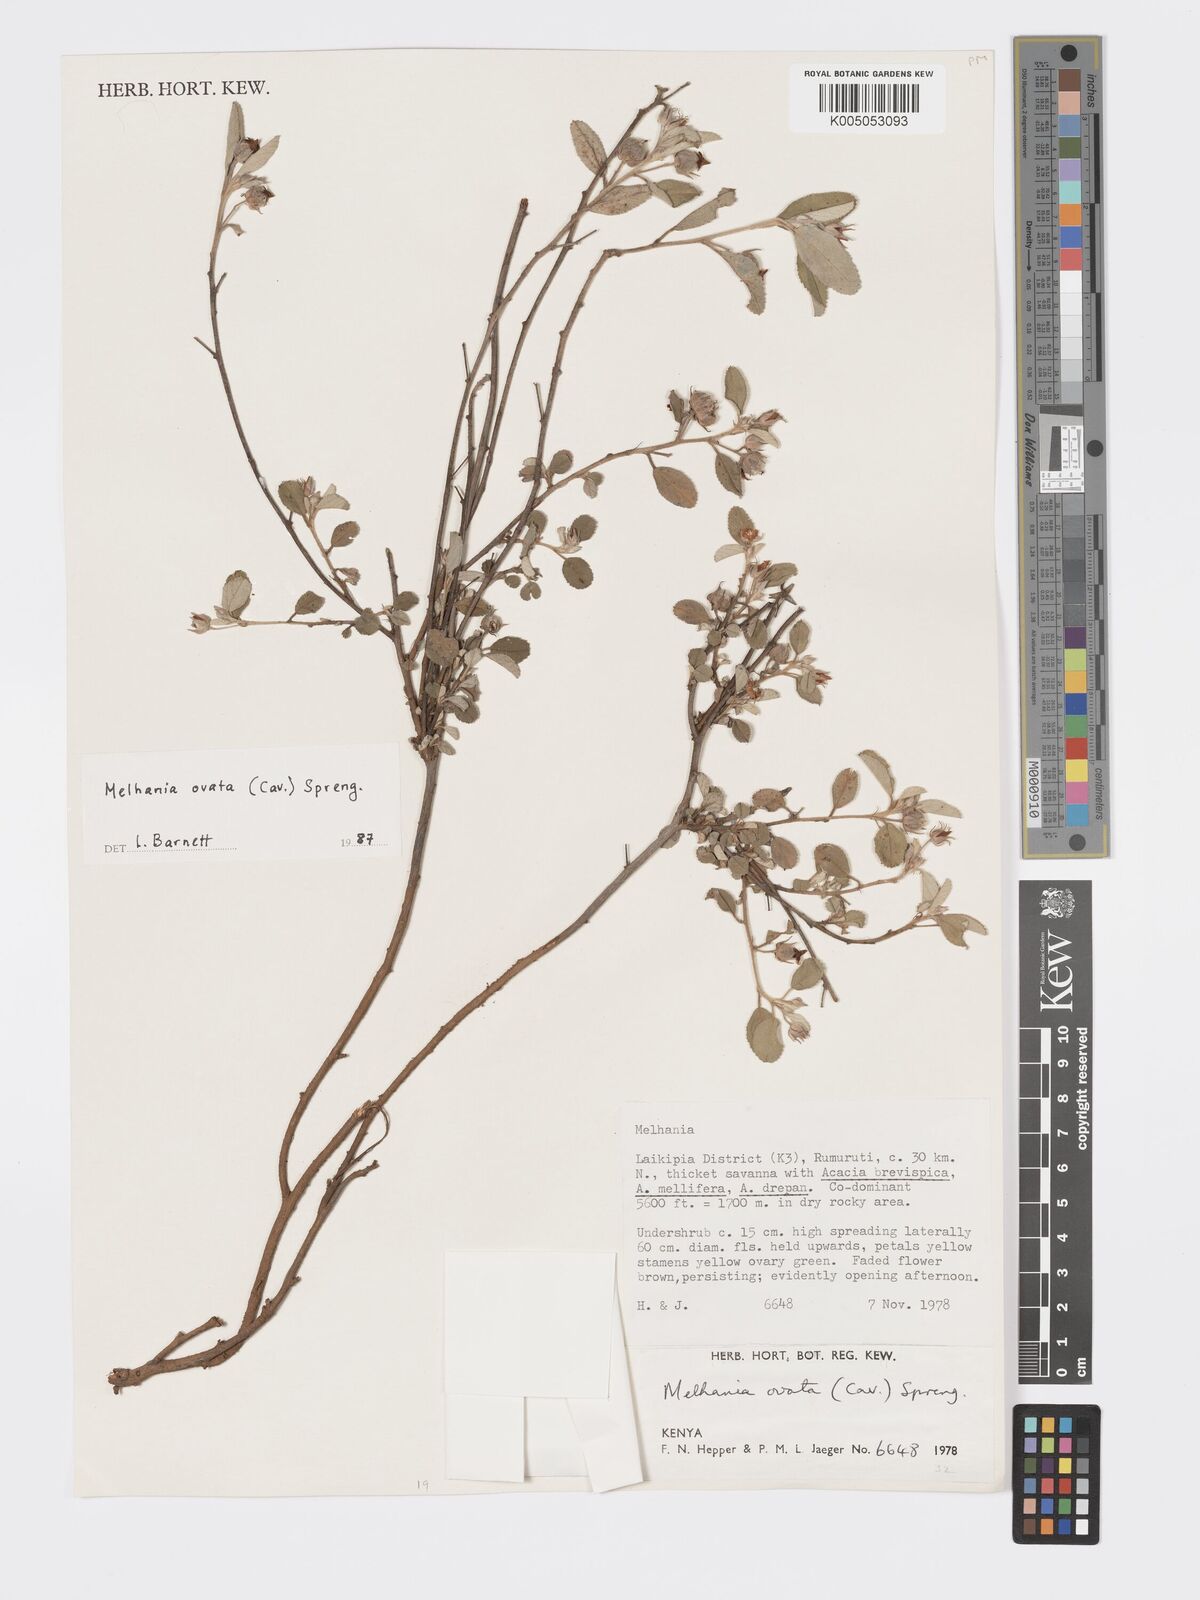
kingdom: Plantae
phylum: Tracheophyta
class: Magnoliopsida
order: Malvales
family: Malvaceae
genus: Melhania
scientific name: Melhania ovata
